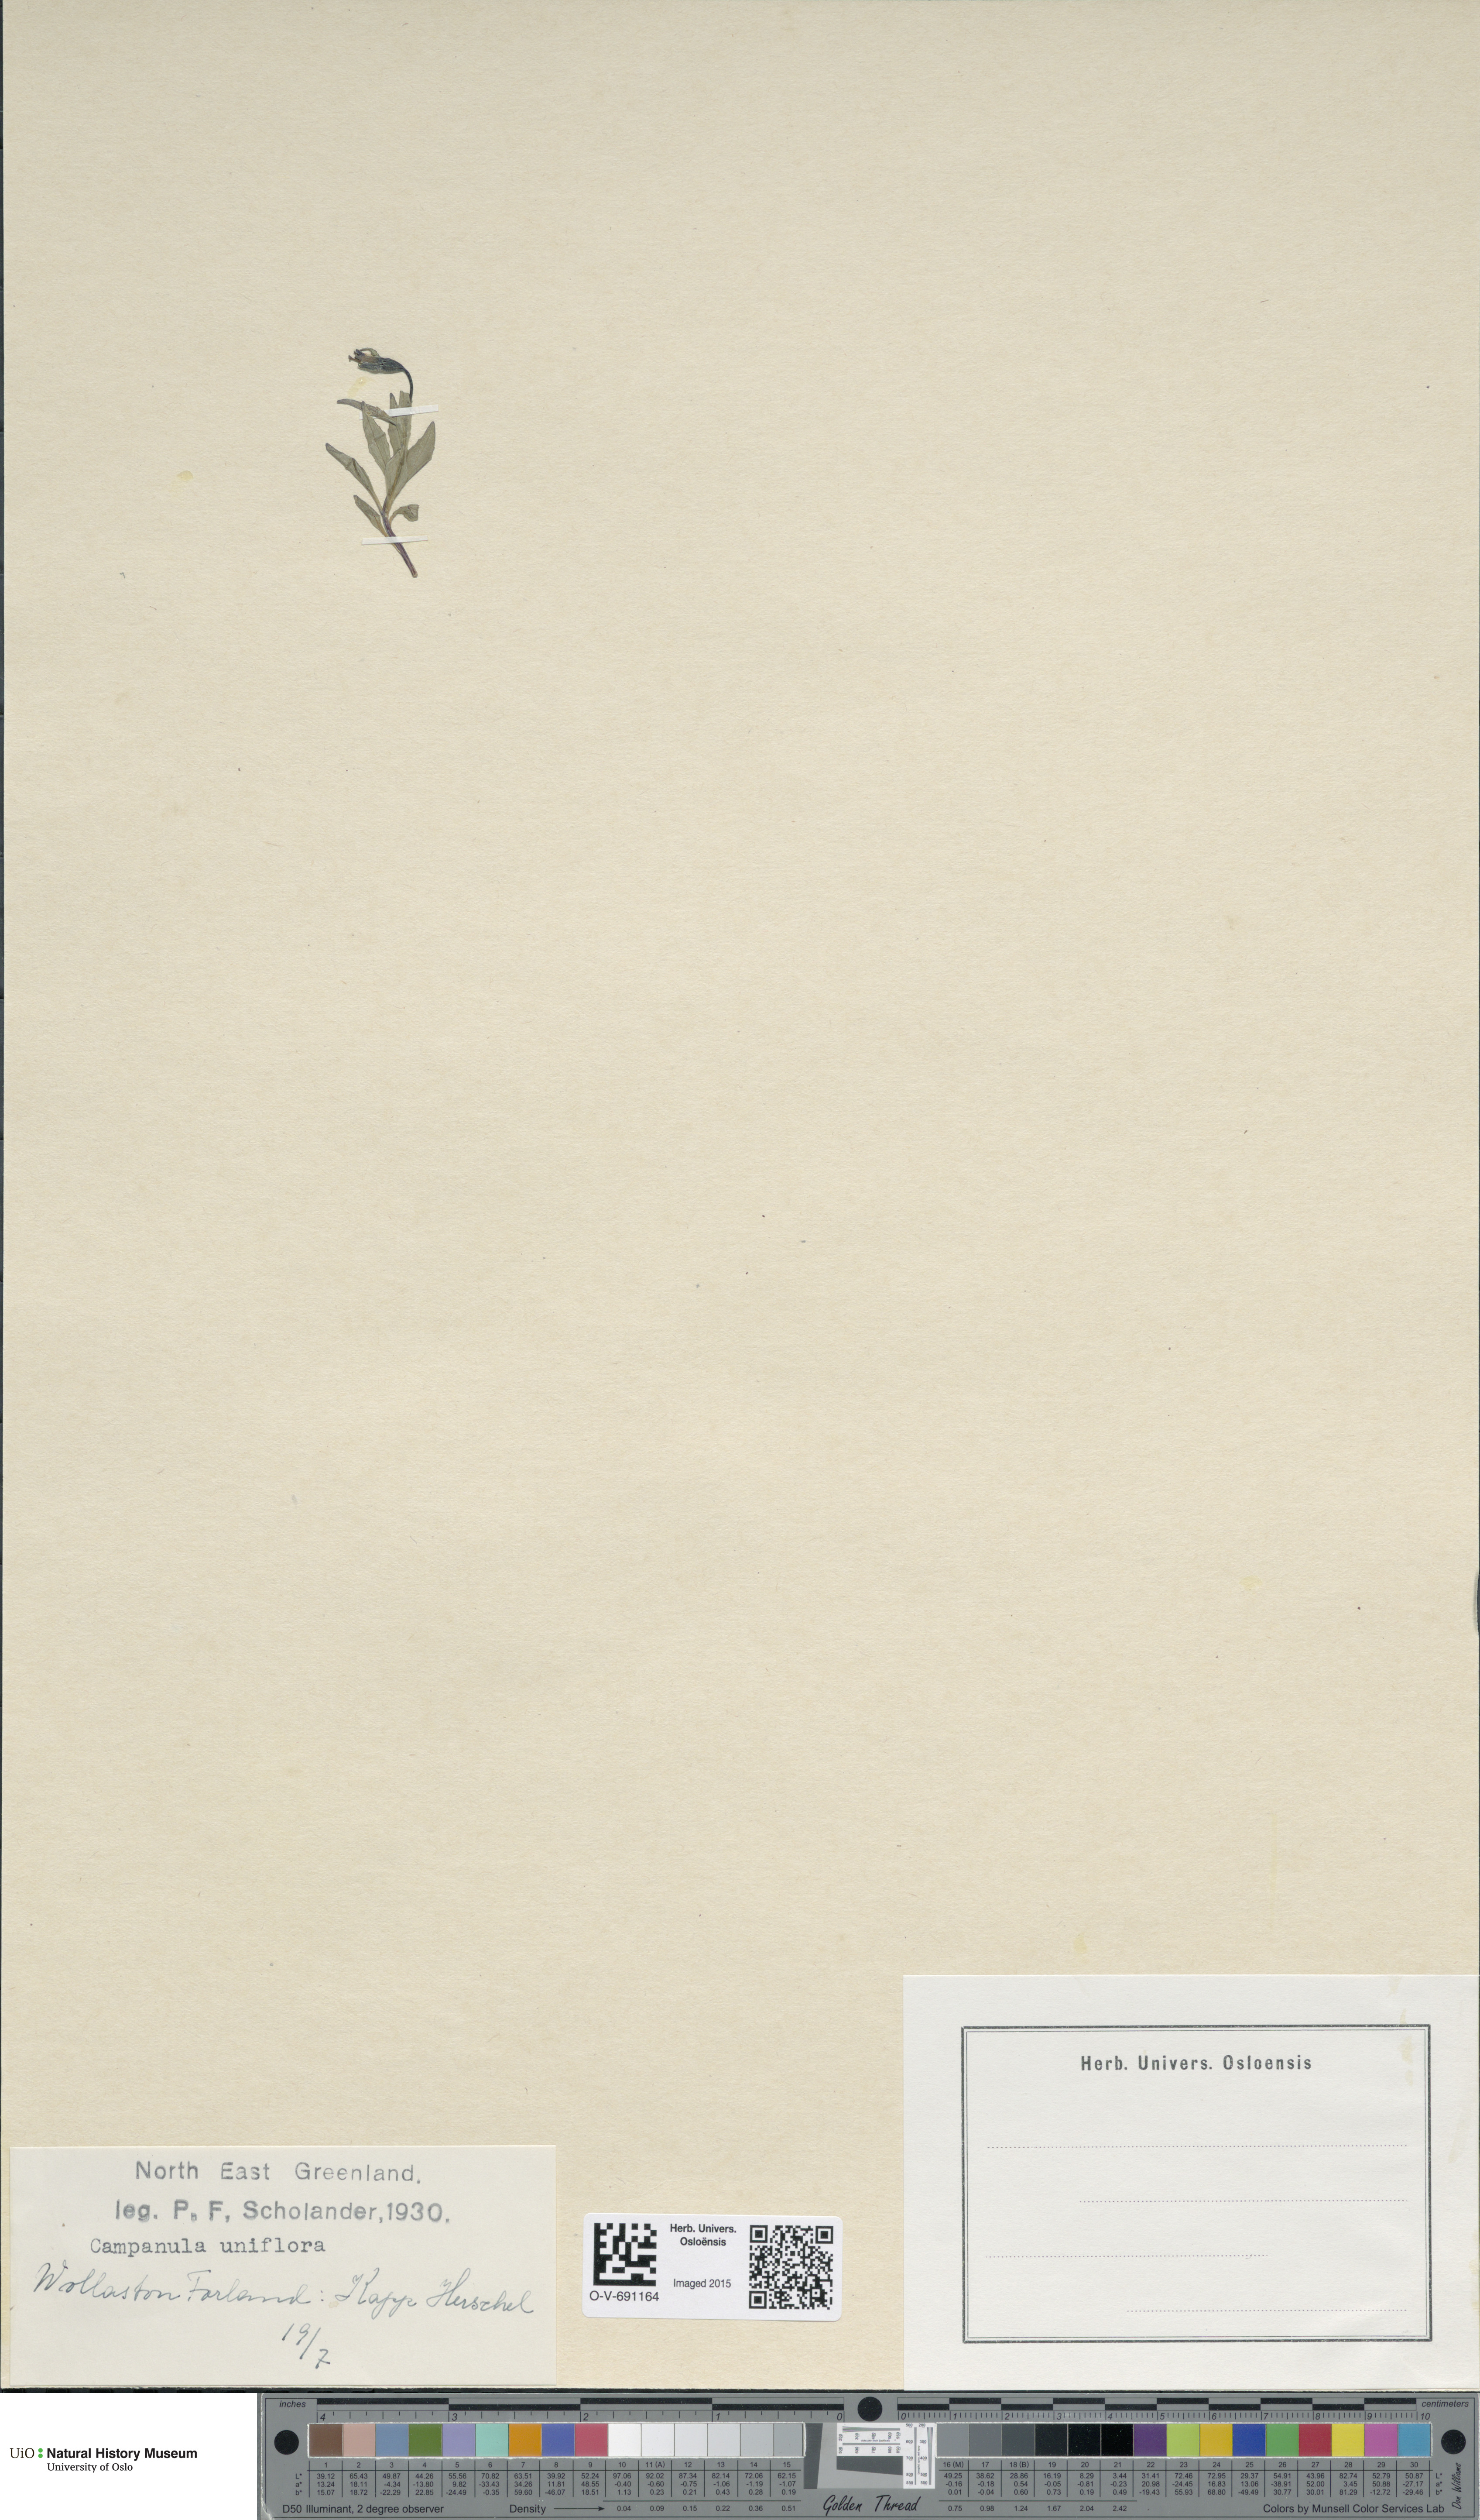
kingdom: Plantae
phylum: Tracheophyta
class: Magnoliopsida
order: Asterales
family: Campanulaceae
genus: Melanocalyx
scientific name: Melanocalyx uniflora
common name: Alpine harebell
